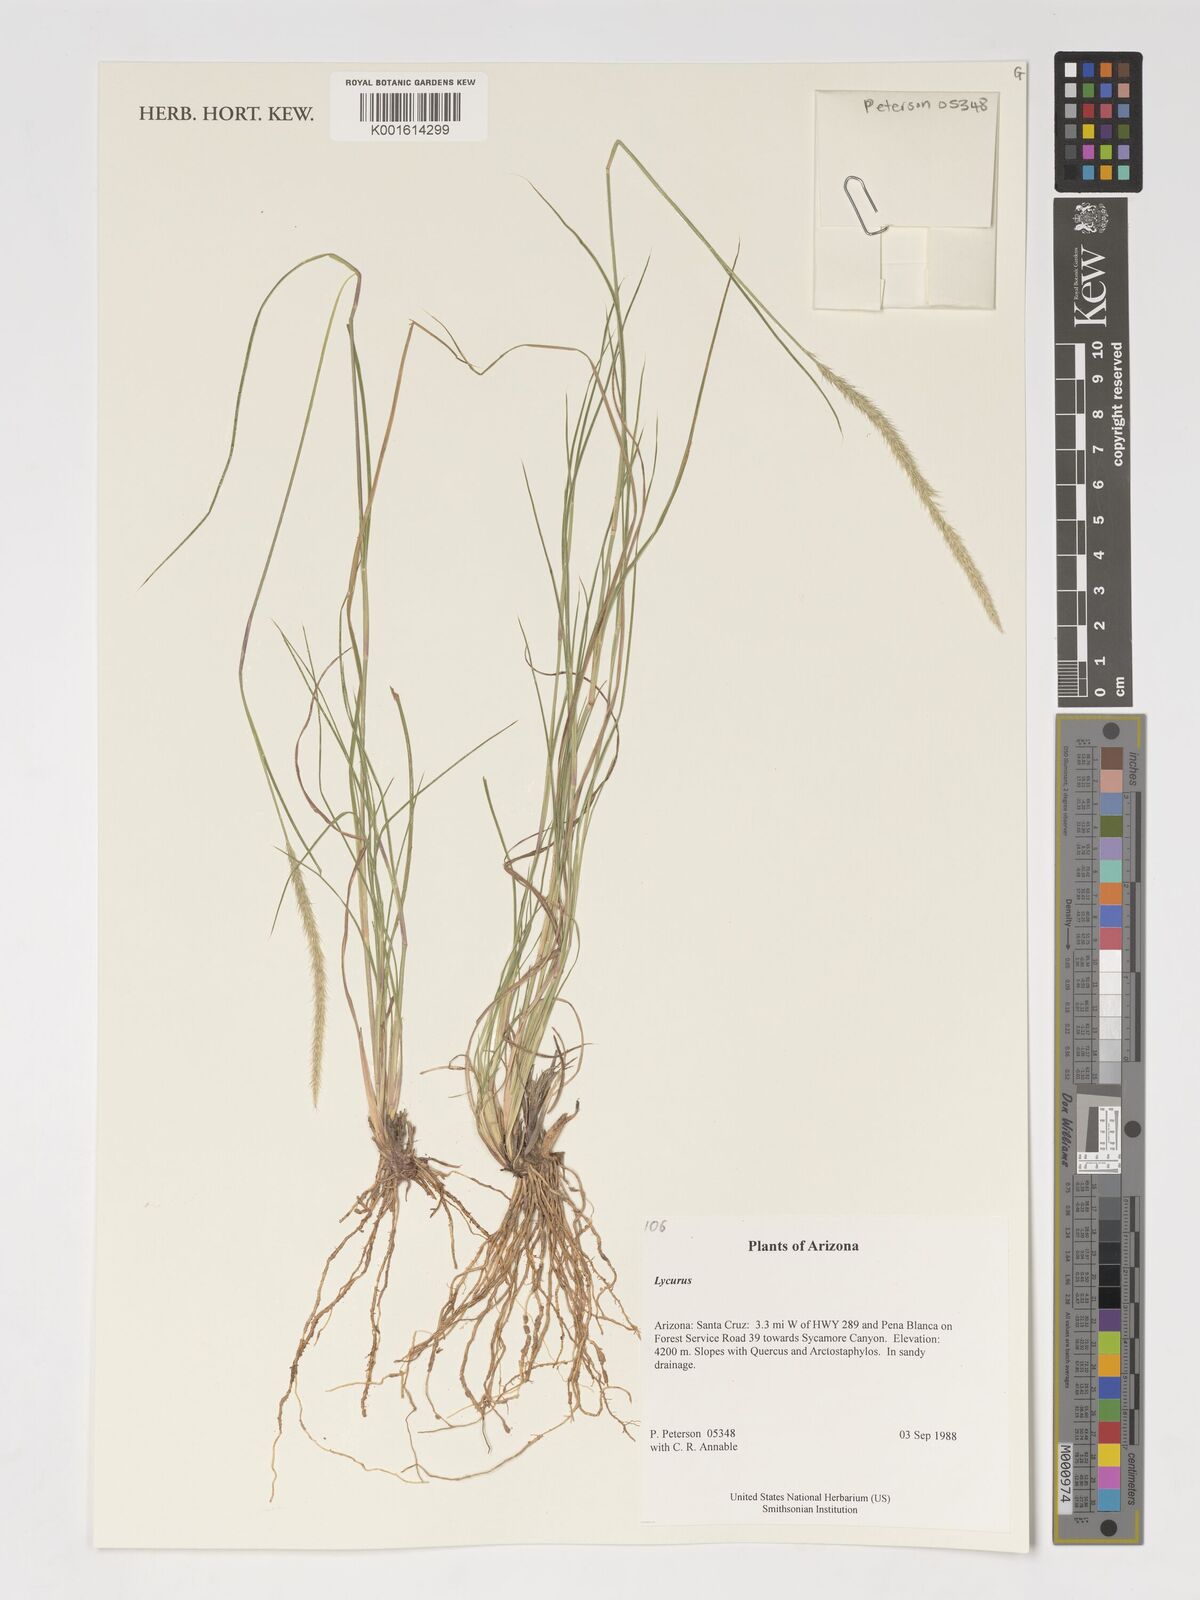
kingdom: Plantae
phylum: Tracheophyta
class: Liliopsida
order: Poales
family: Poaceae
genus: Muhlenbergia
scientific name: Muhlenbergia
